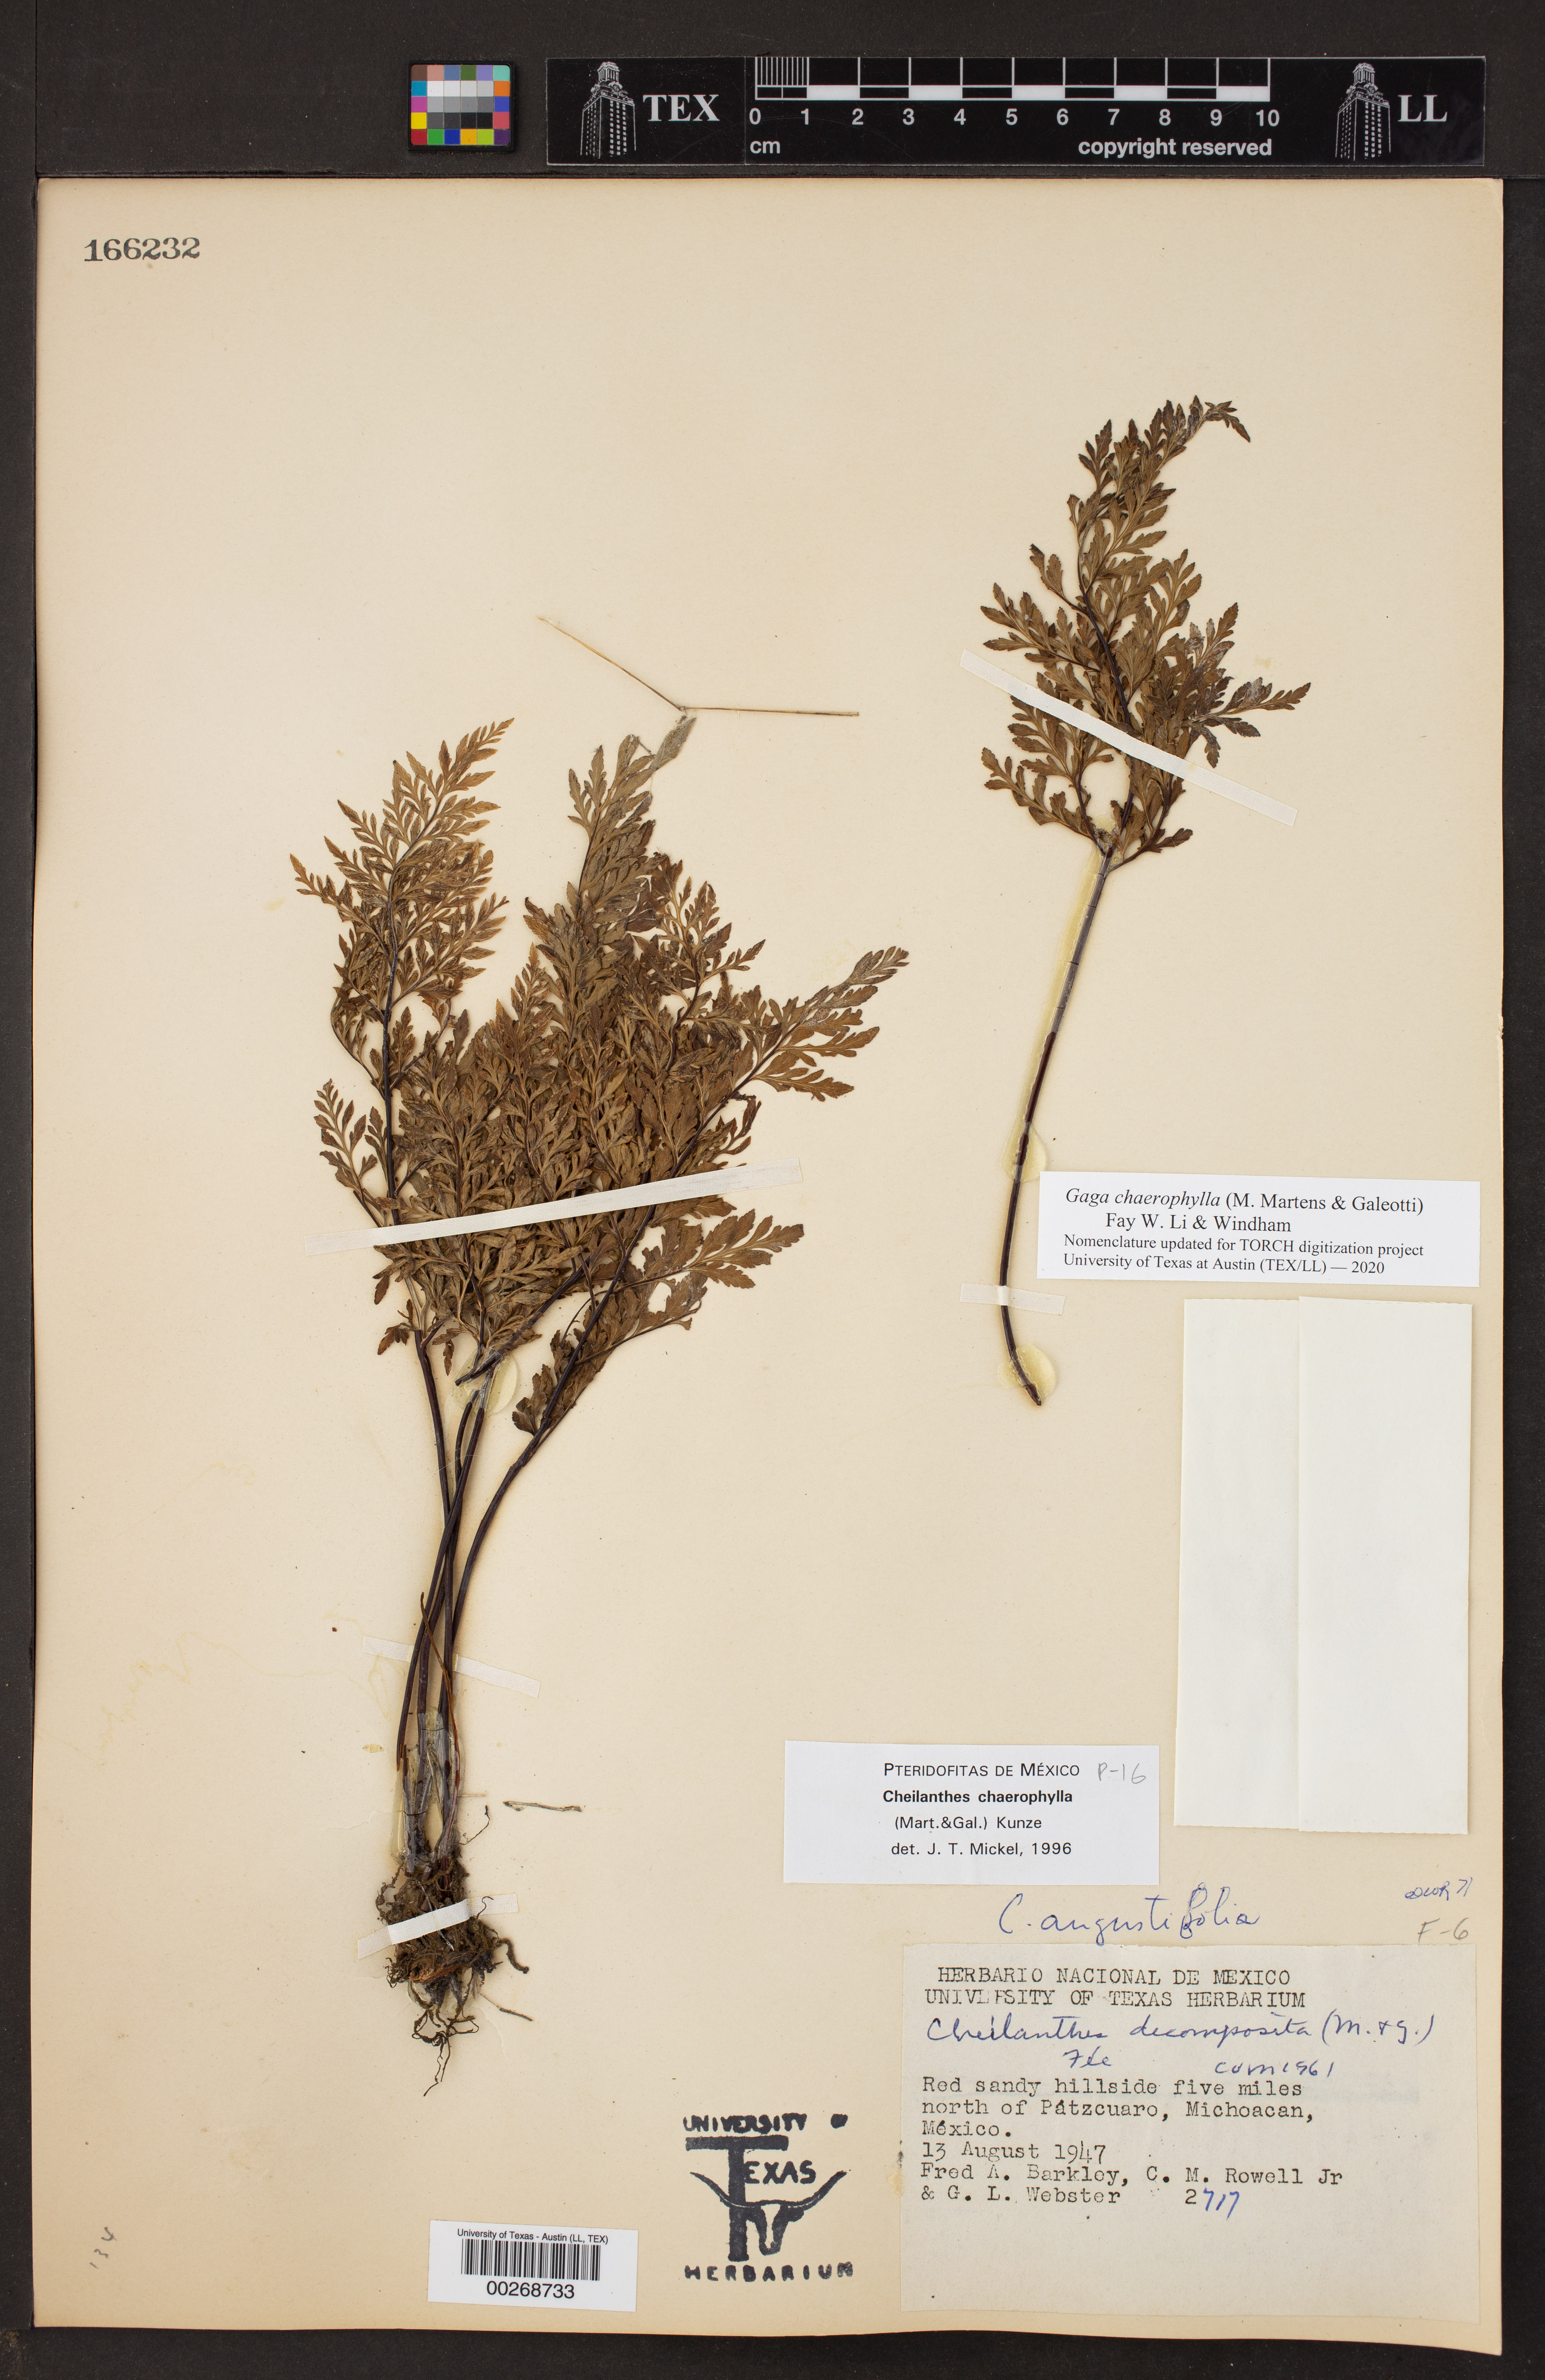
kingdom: Plantae
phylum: Tracheophyta
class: Polypodiopsida
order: Polypodiales
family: Pteridaceae
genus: Gaga
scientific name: Gaga chaerophylla
